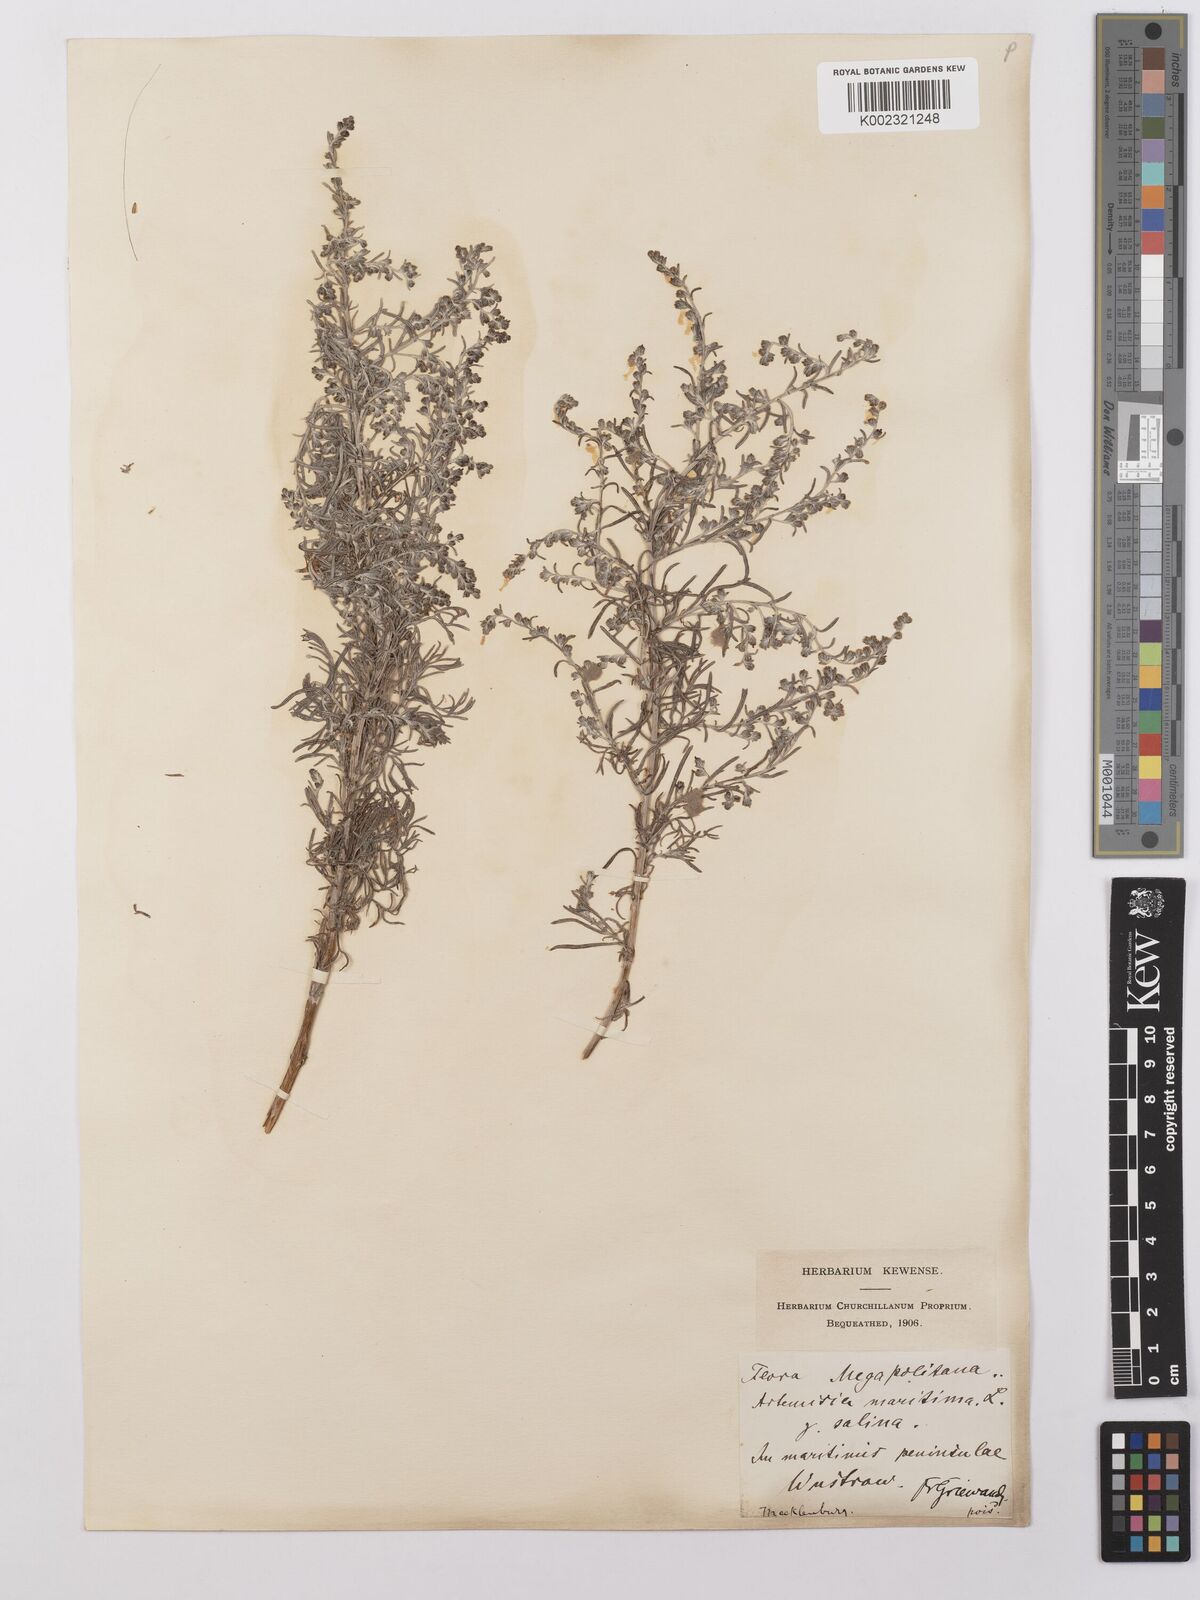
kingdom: Plantae
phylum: Tracheophyta
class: Magnoliopsida
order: Asterales
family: Asteraceae
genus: Artemisia
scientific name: Artemisia maritima
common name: Wormseed
